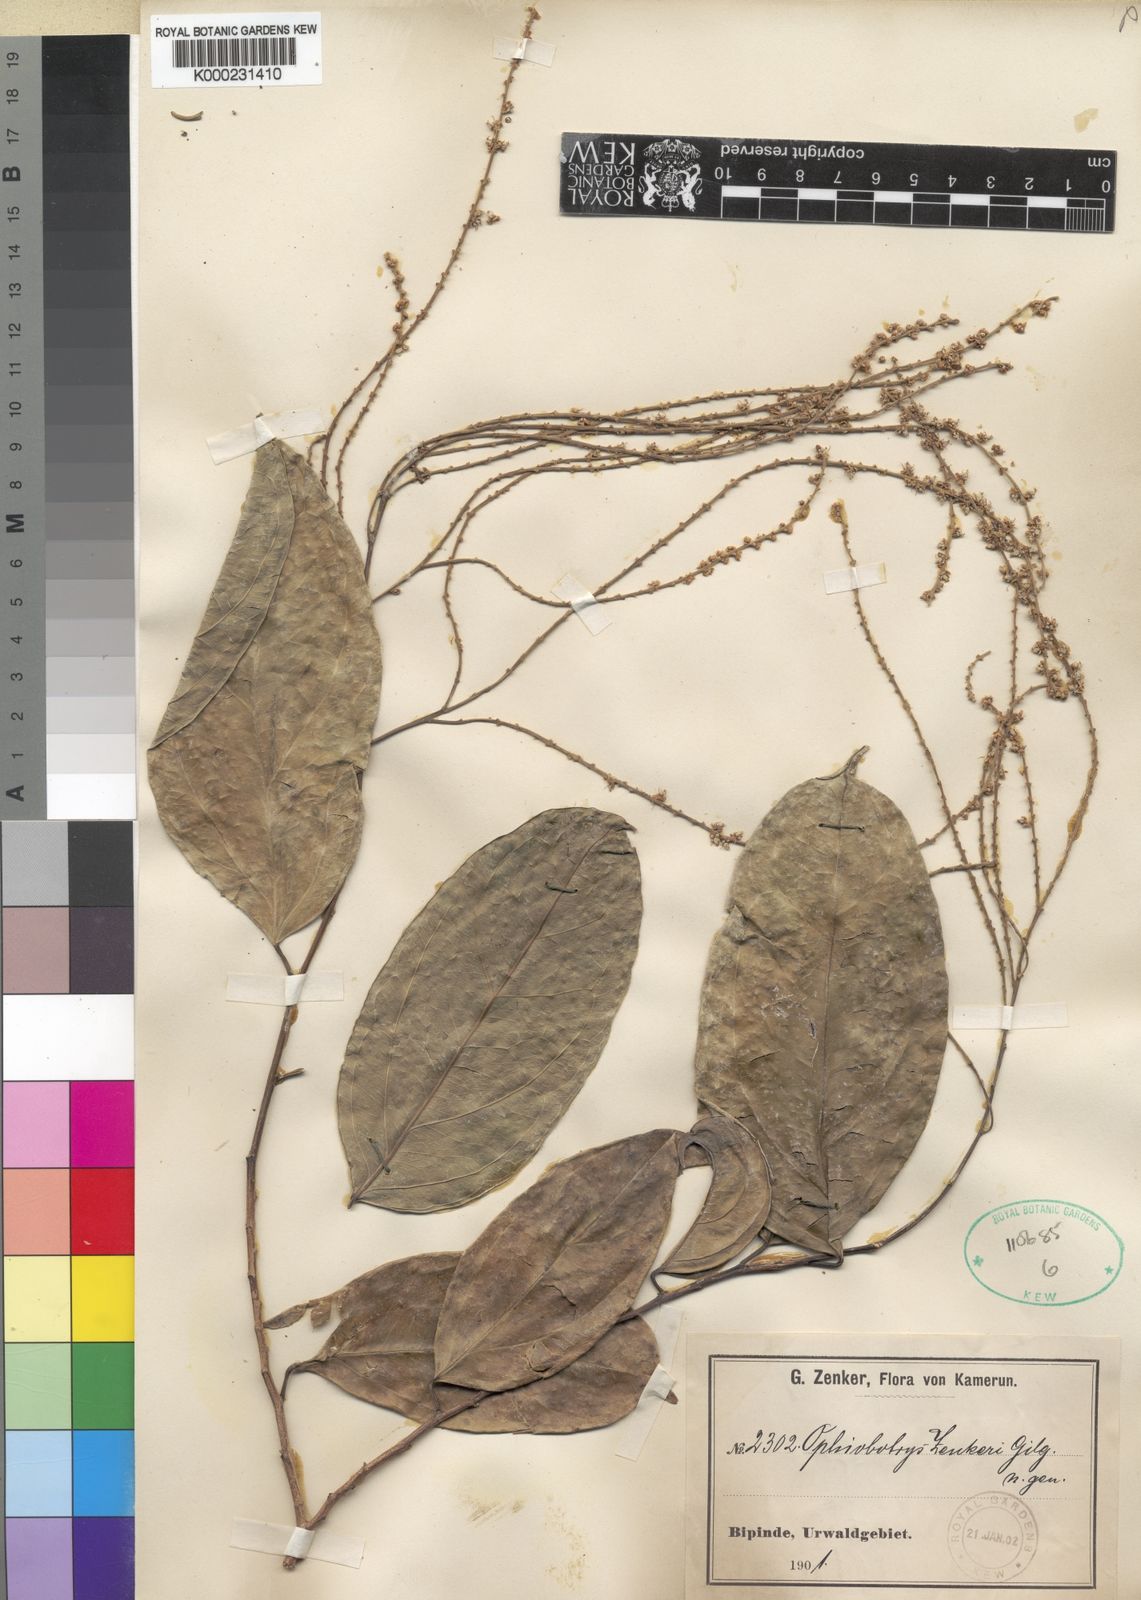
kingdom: Plantae
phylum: Tracheophyta
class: Magnoliopsida
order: Malpighiales
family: Salicaceae
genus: Ophiobotrys
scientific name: Ophiobotrys zenkeri
